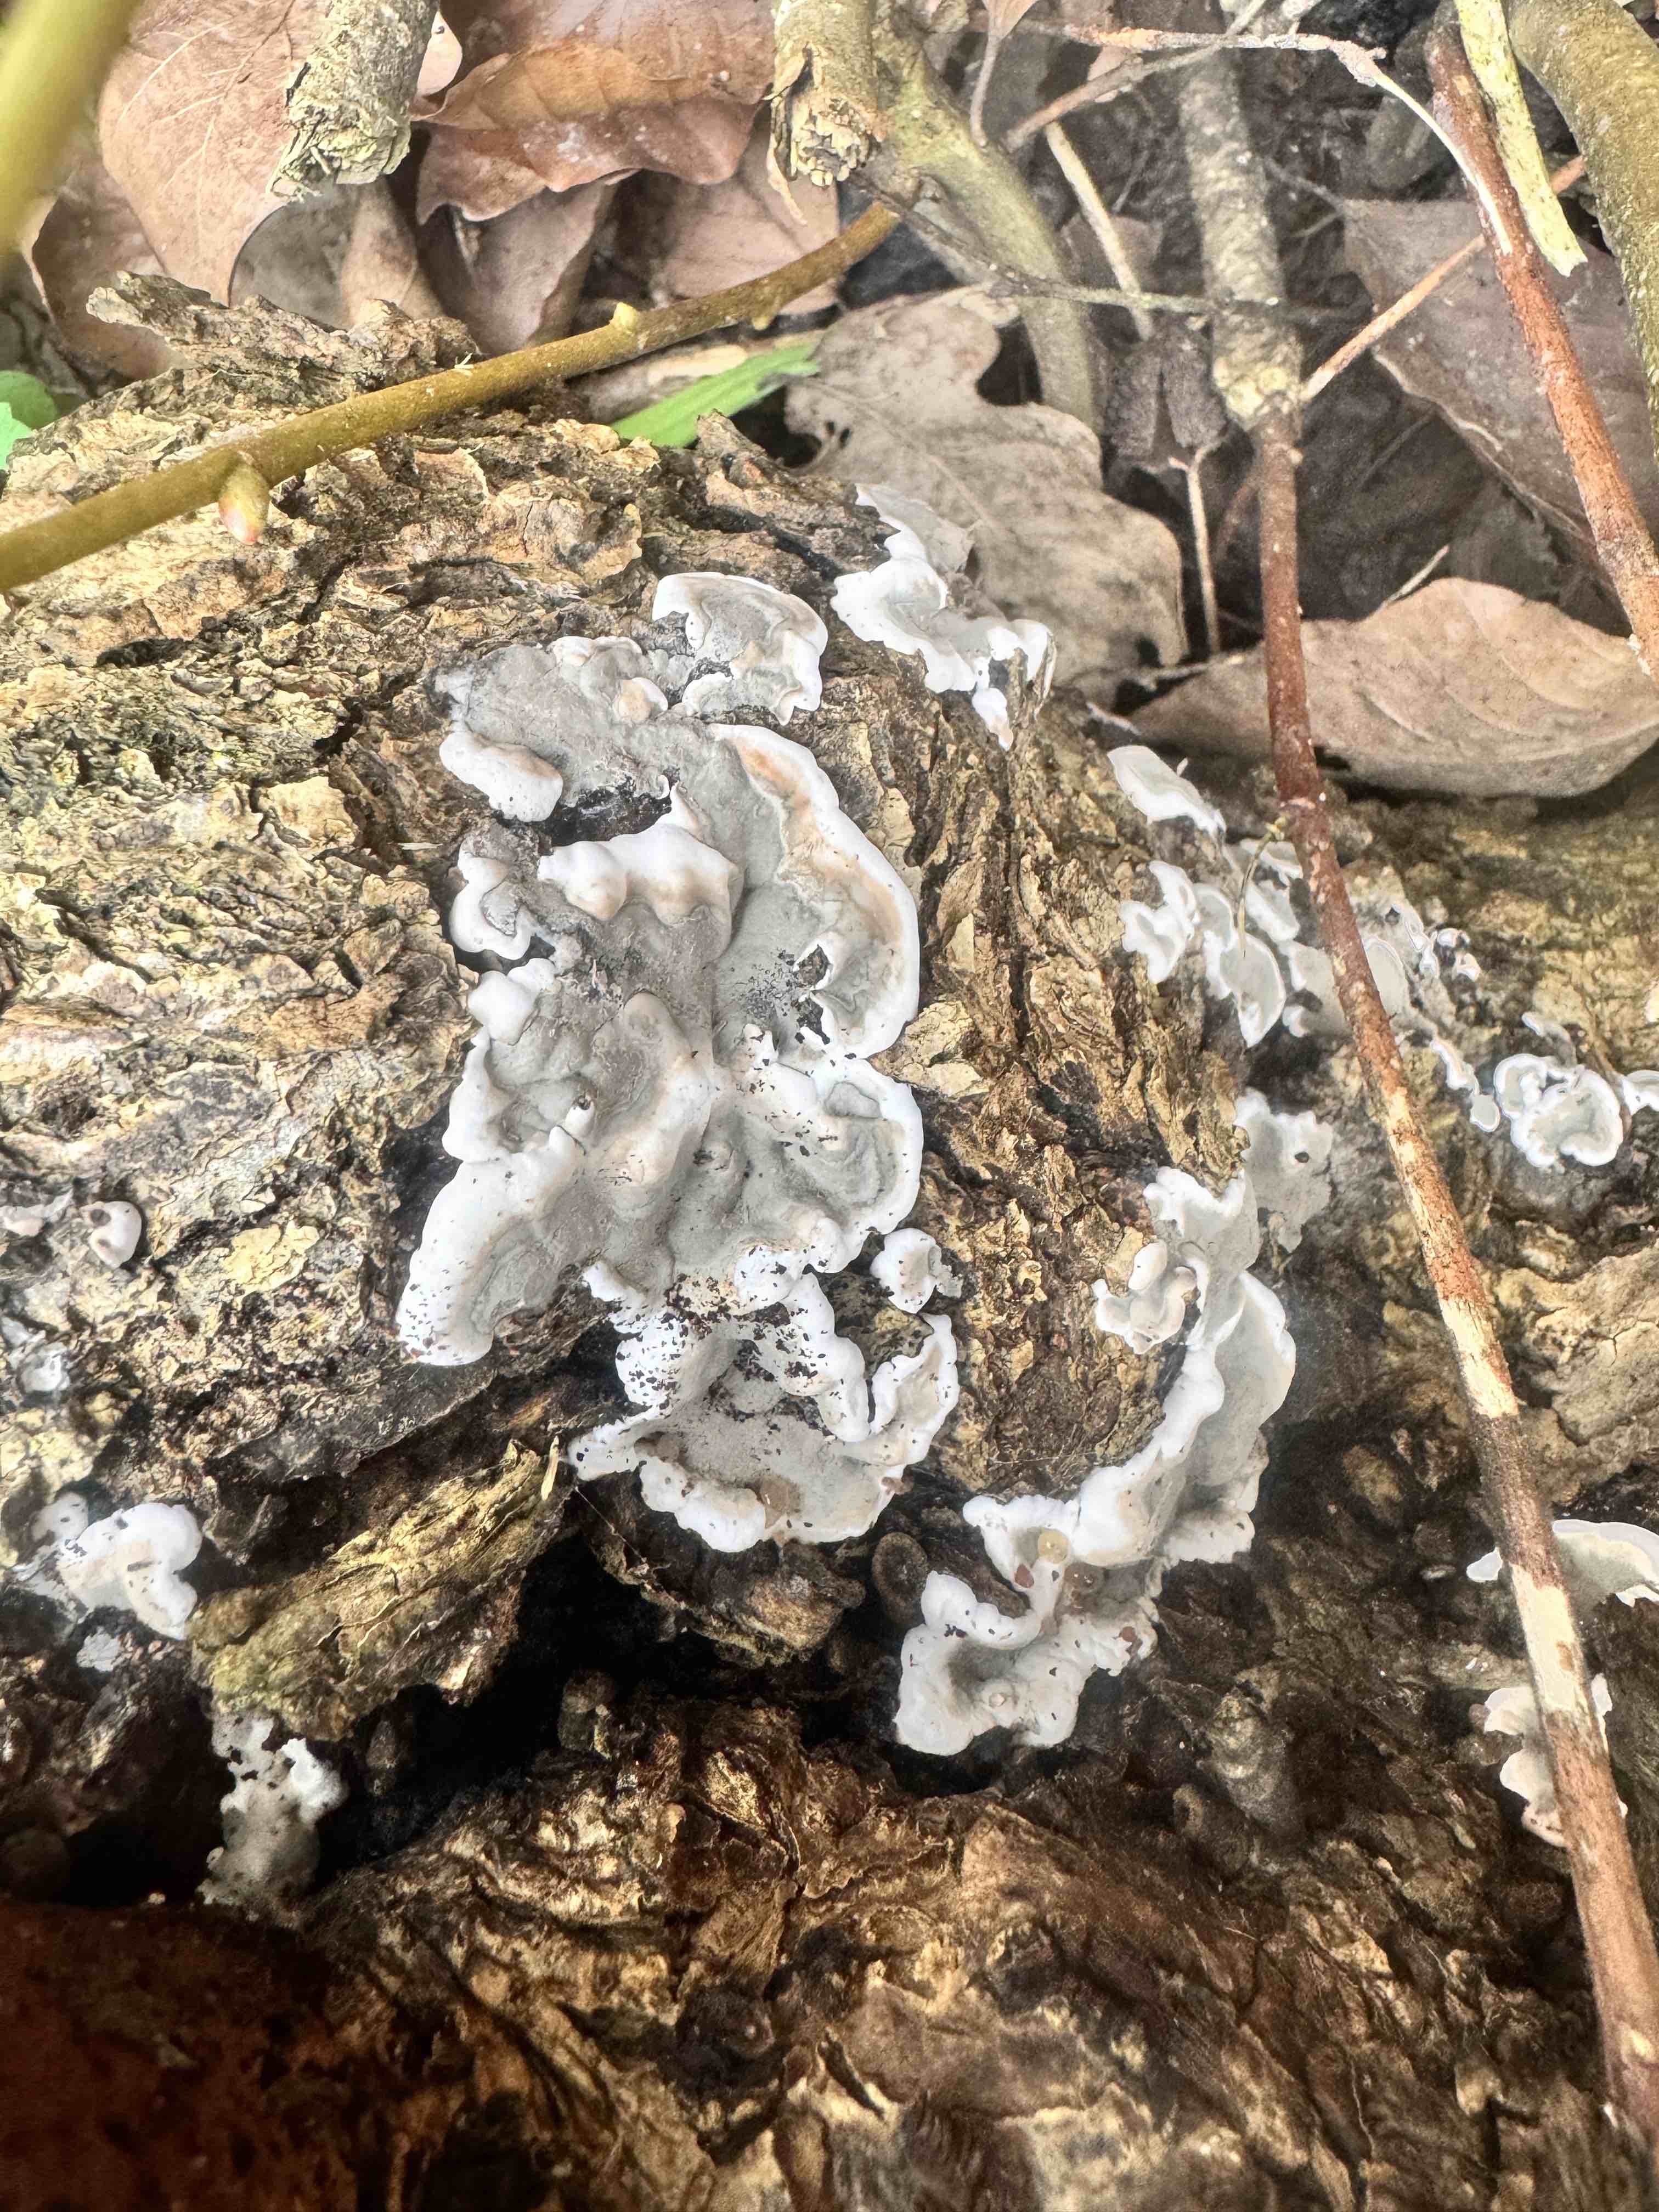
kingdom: Fungi
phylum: Ascomycota
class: Sordariomycetes
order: Xylariales
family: Xylariaceae
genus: Kretzschmaria
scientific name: Kretzschmaria deusta
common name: stor kulsvamp
